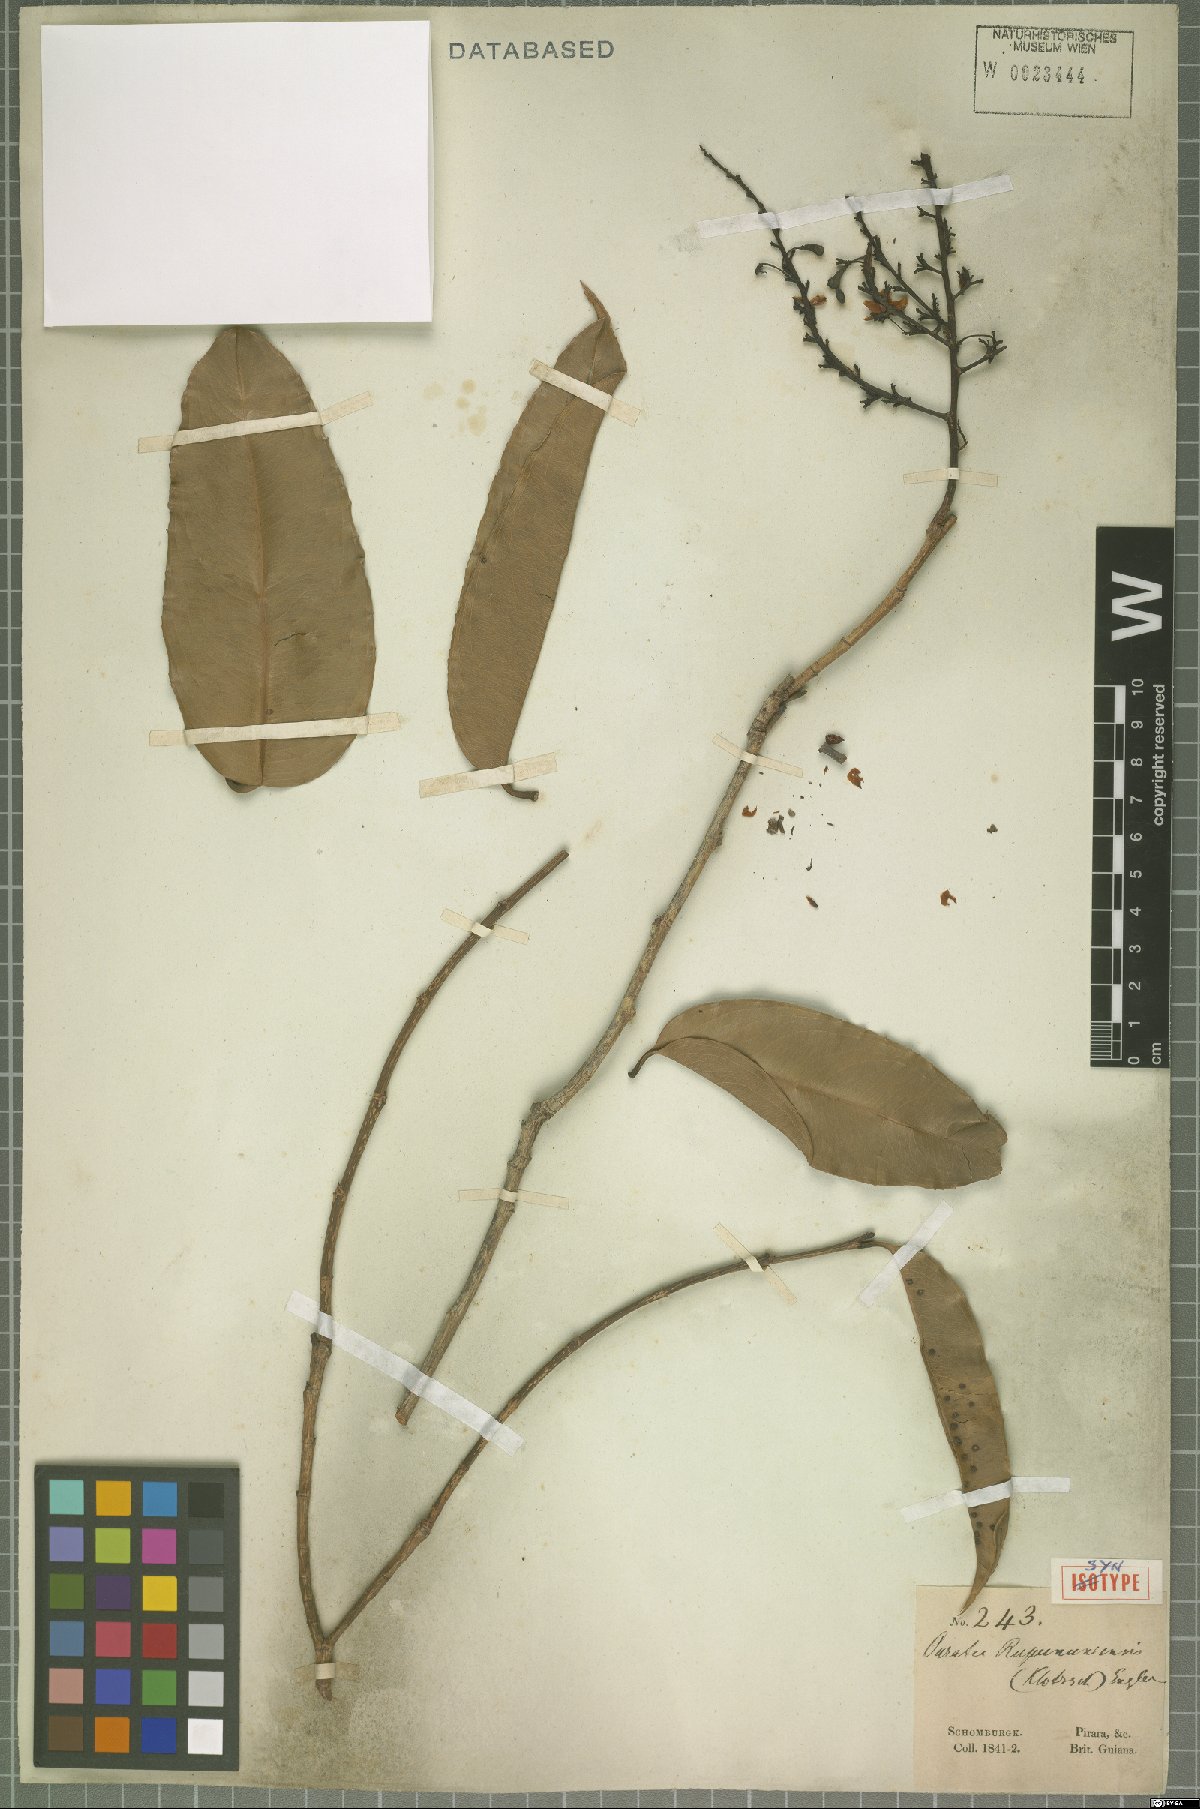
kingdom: Plantae
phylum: Tracheophyta
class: Magnoliopsida
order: Malpighiales
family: Ochnaceae
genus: Ouratea
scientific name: Ouratea rupununiensis
